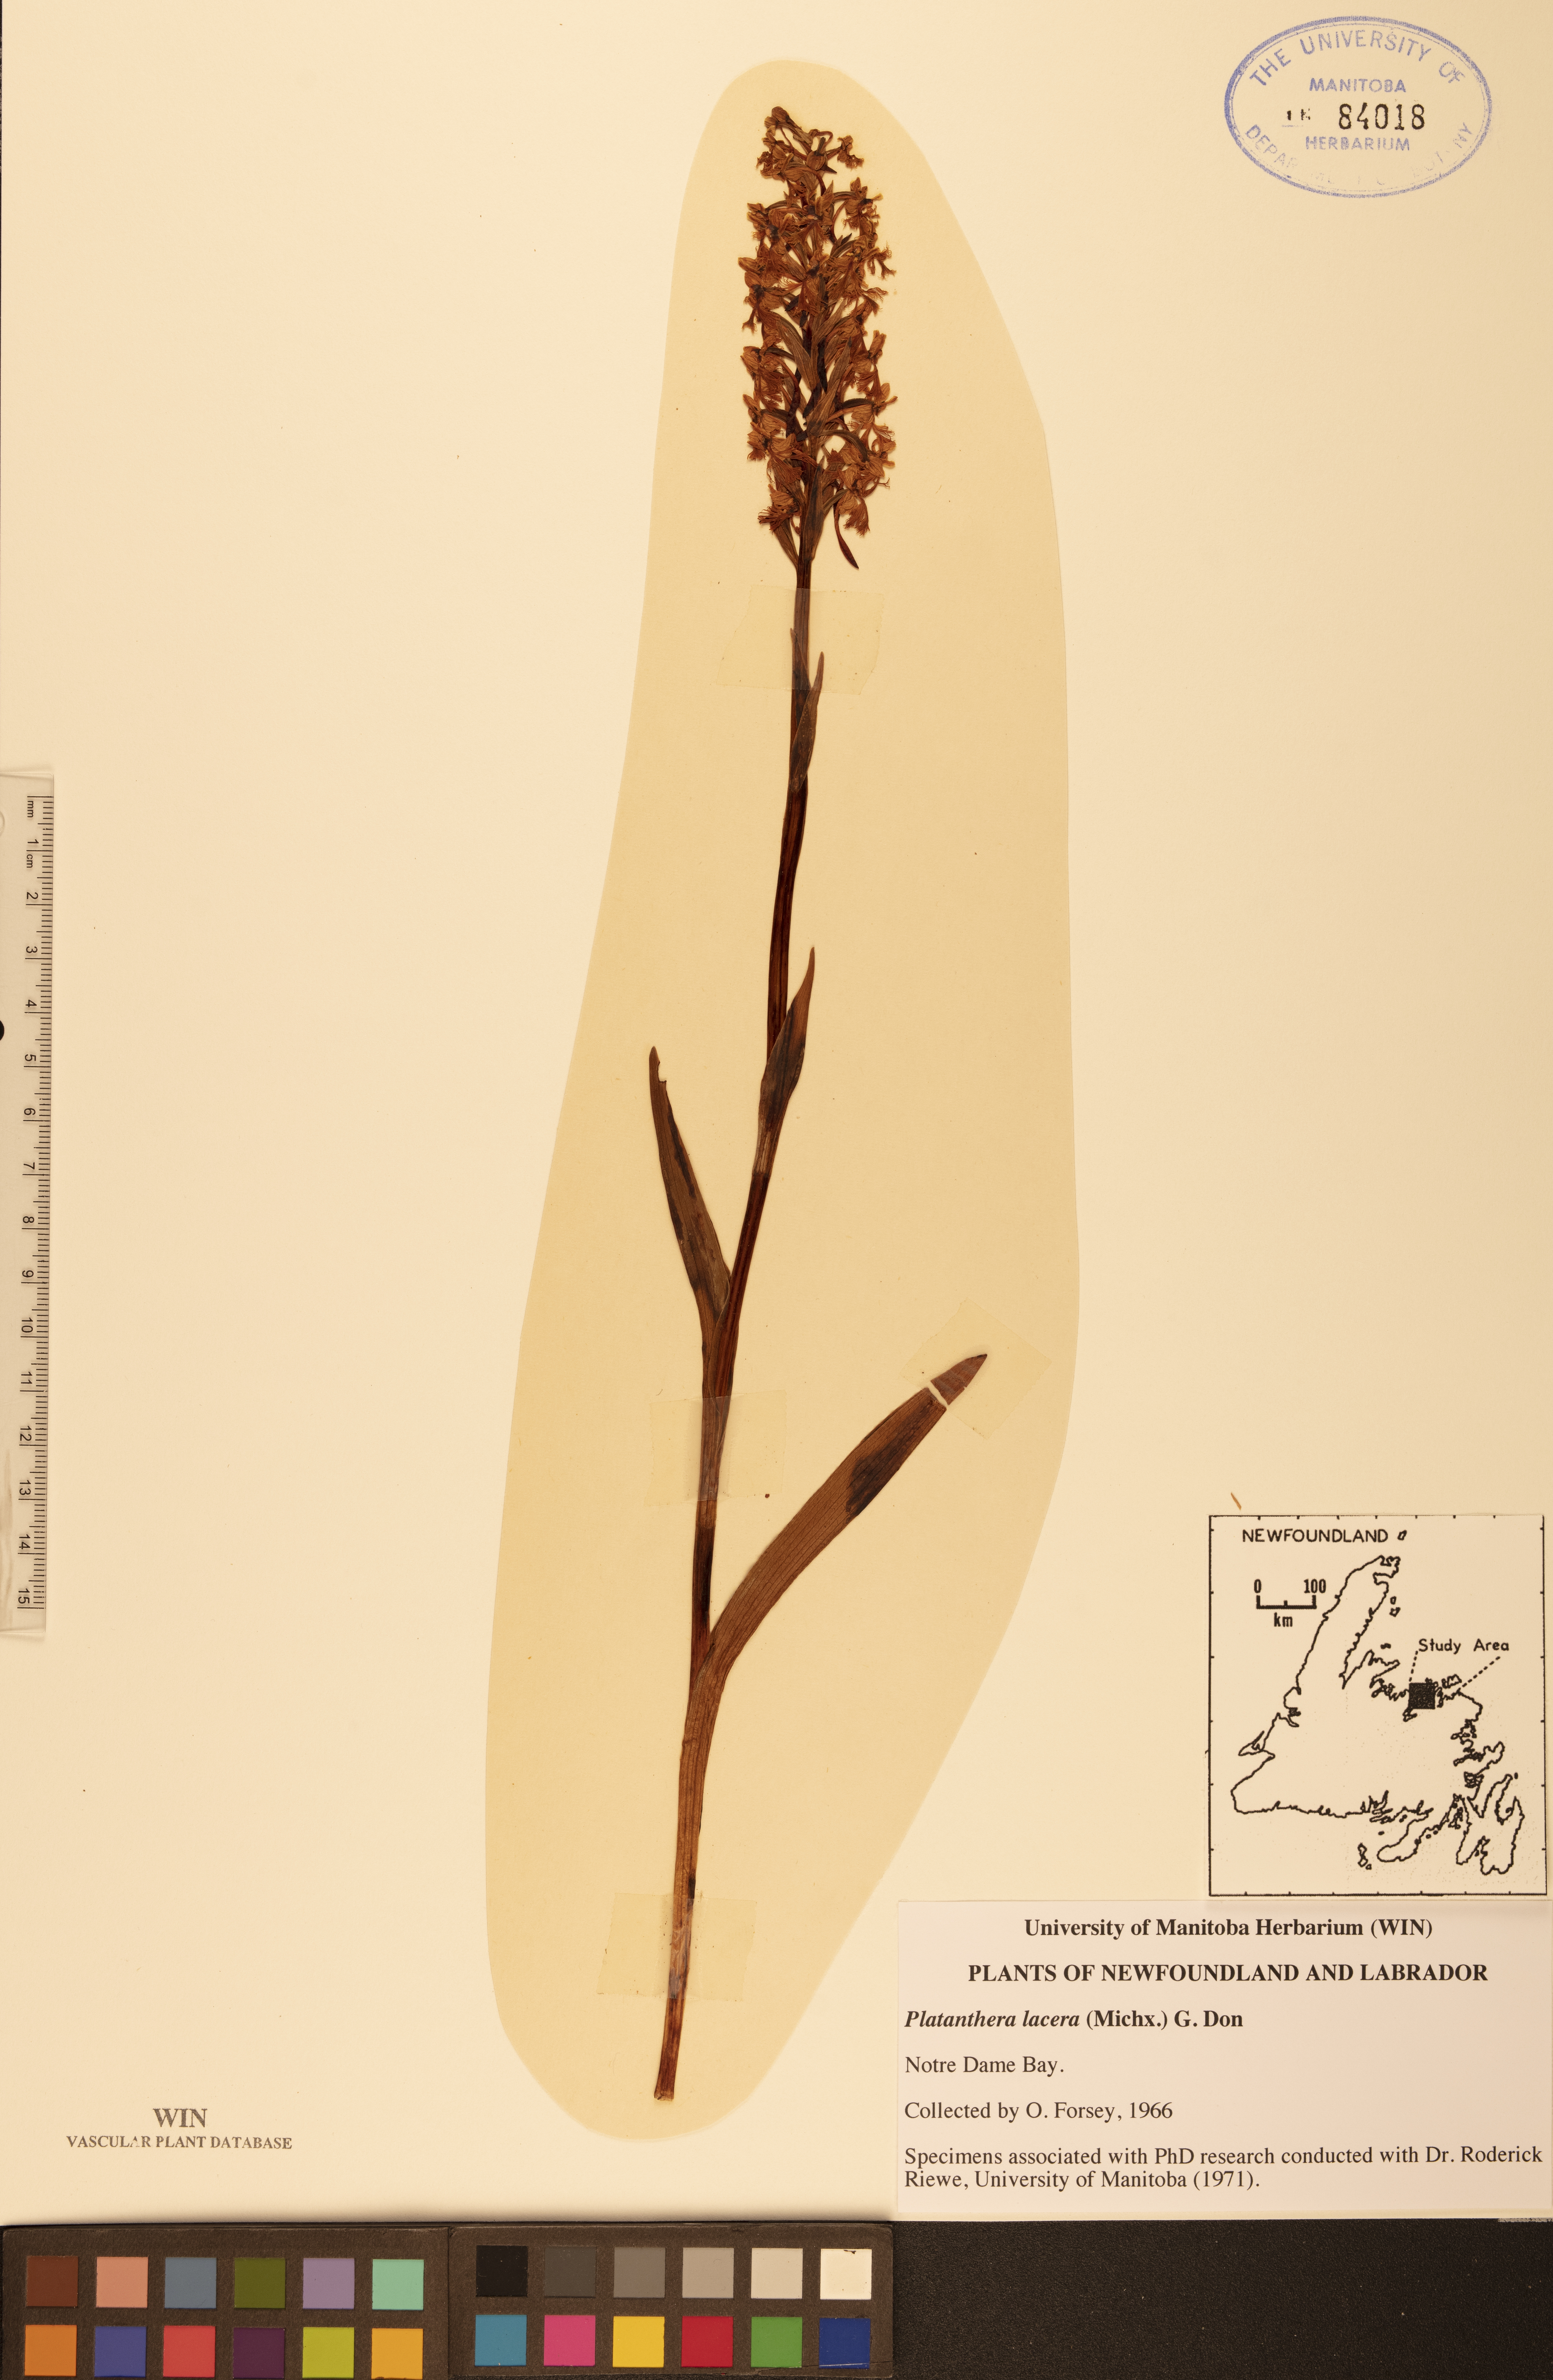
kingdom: Plantae
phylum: Tracheophyta
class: Liliopsida
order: Asparagales
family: Orchidaceae
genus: Platanthera
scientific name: Platanthera lacera
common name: Green fringed orchid
